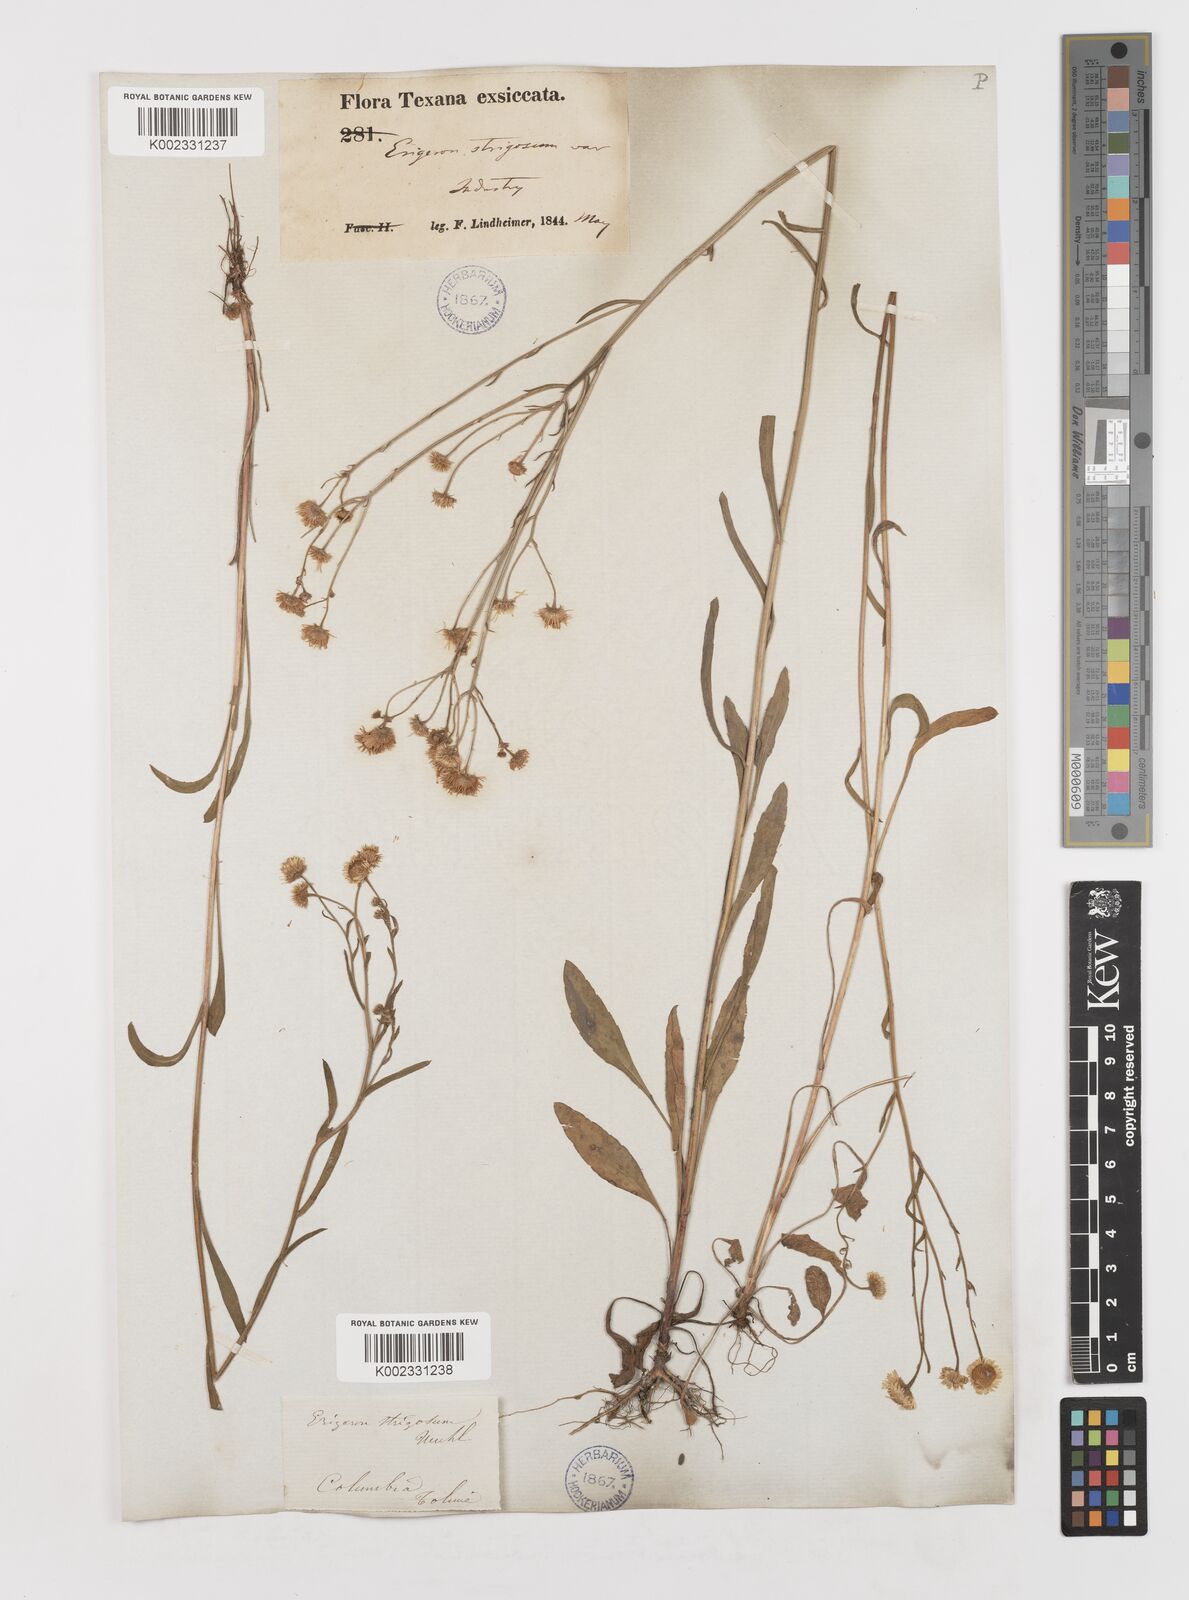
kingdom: Plantae
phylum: Tracheophyta
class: Magnoliopsida
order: Asterales
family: Asteraceae
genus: Erigeron
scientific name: Erigeron strigosus
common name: Common eastern fleabane
